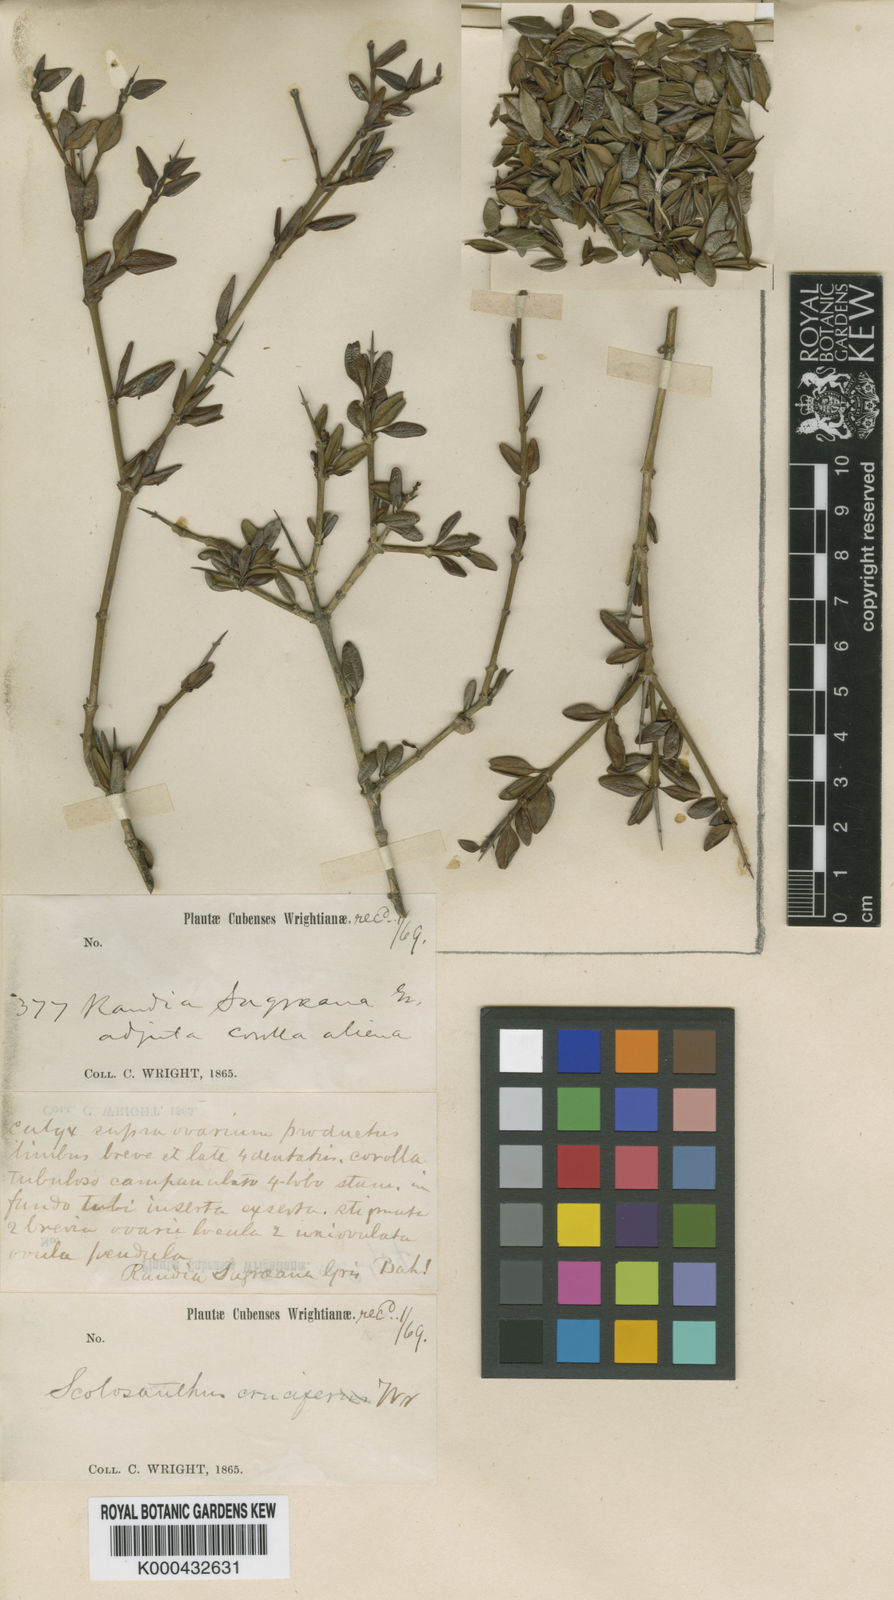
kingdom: Plantae
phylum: Tracheophyta
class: Magnoliopsida
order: Gentianales
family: Rubiaceae
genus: Scolosanthus
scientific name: Scolosanthus crucifer
